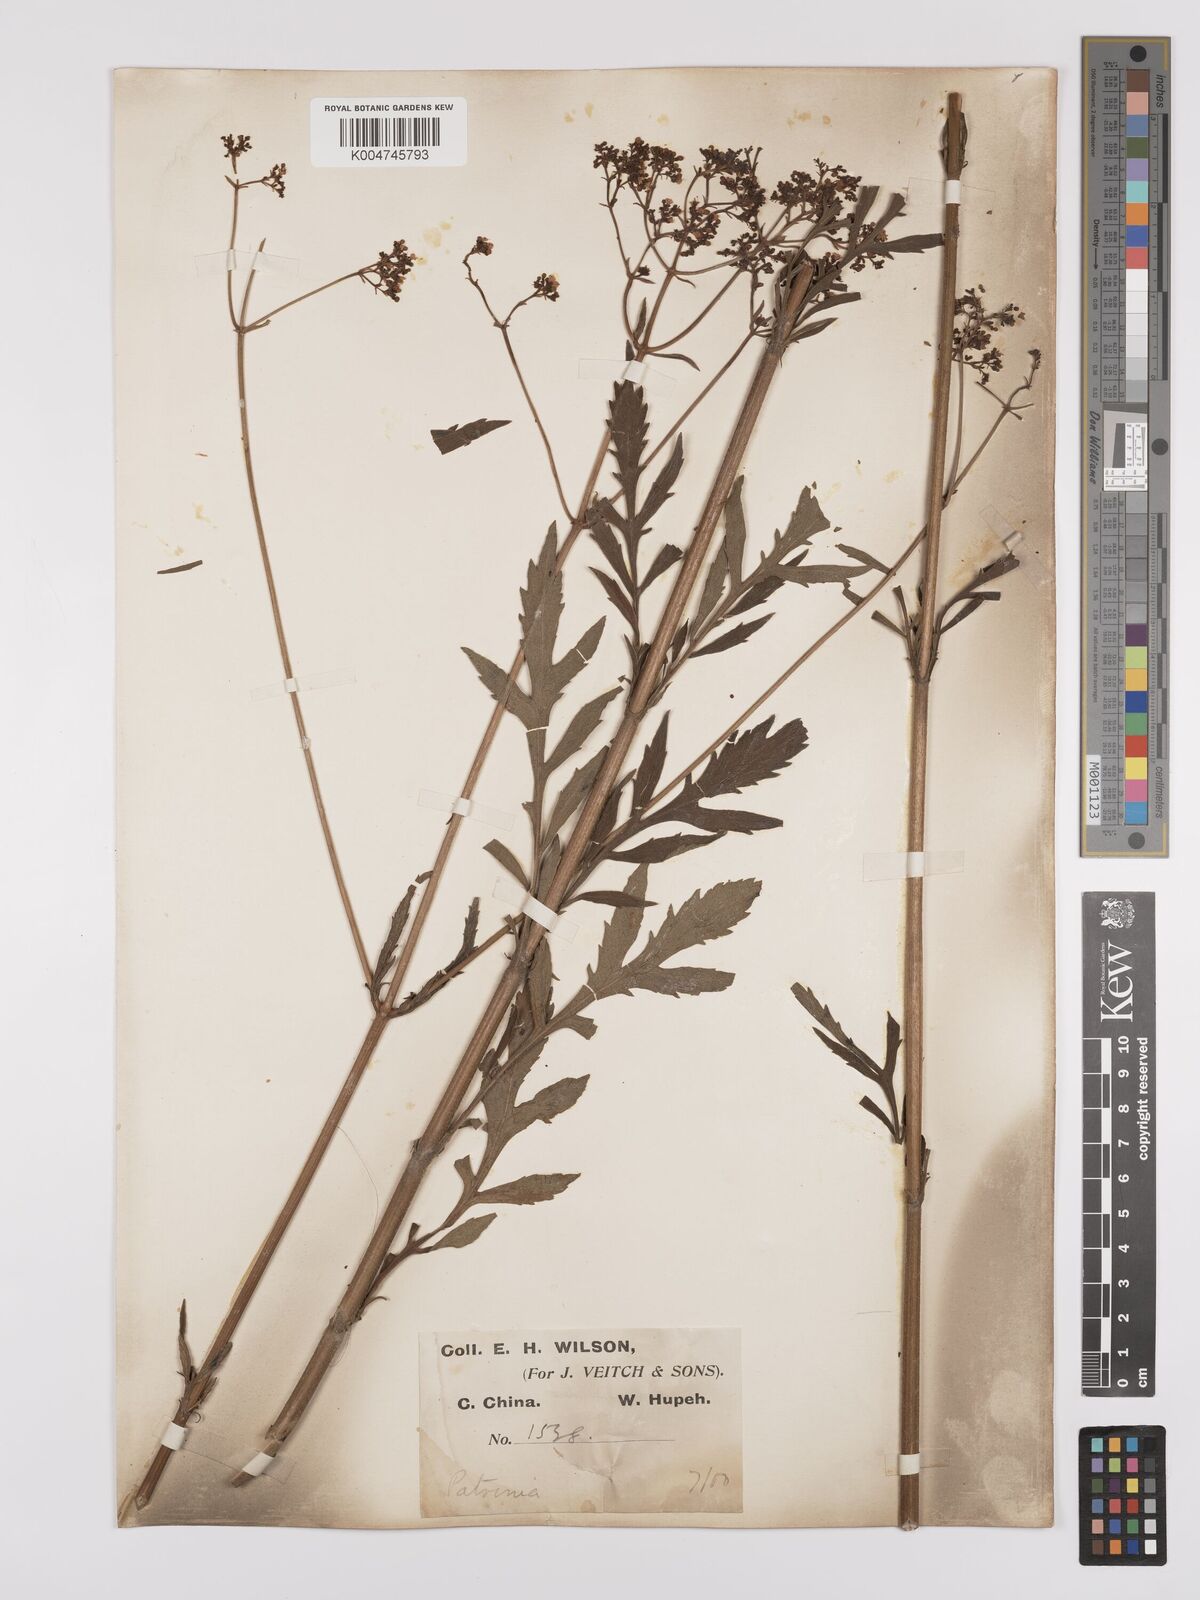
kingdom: Plantae
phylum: Tracheophyta
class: Magnoliopsida
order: Dipsacales
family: Caprifoliaceae
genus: Patrinia
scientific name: Patrinia scabiosifolia
